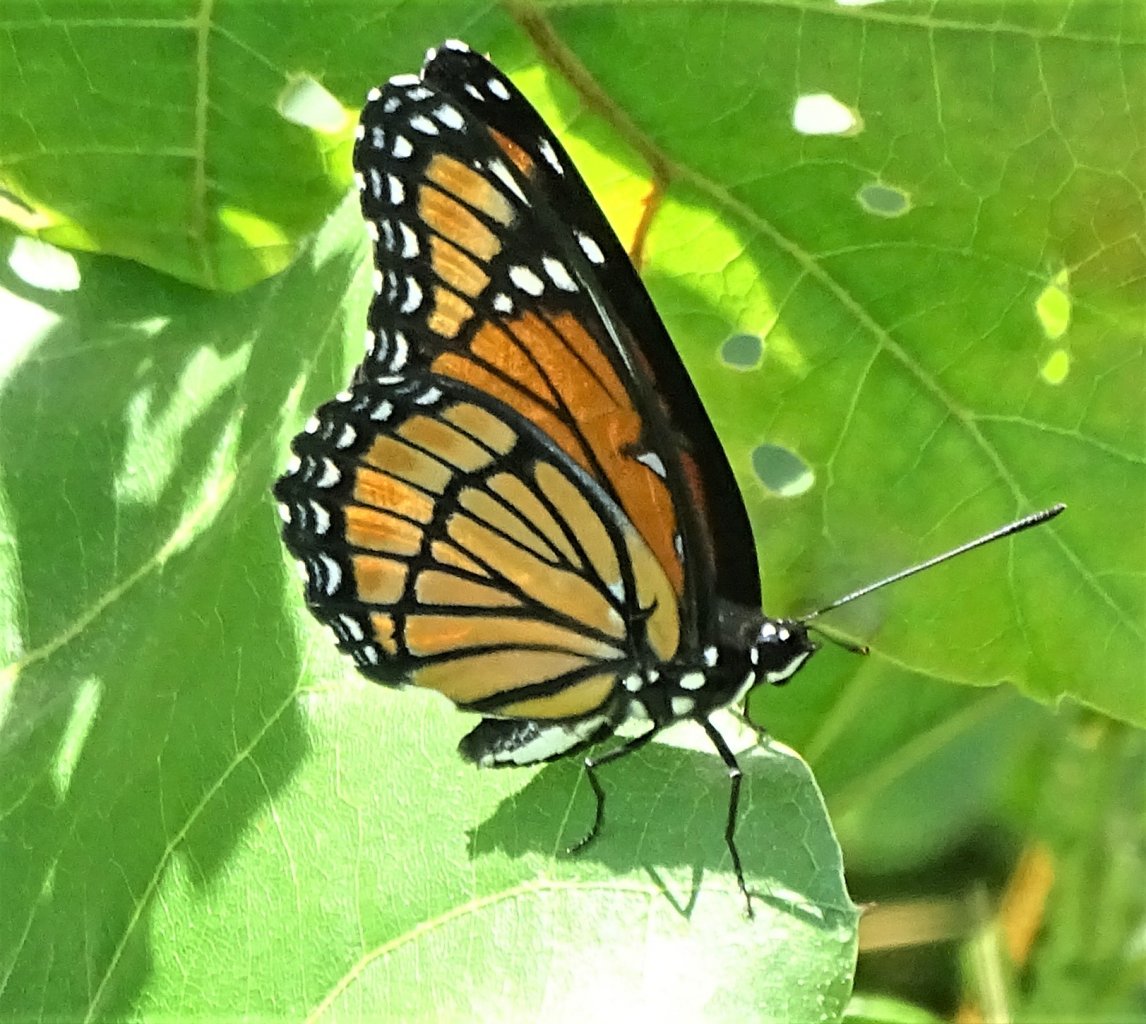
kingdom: Animalia
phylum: Arthropoda
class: Insecta
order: Lepidoptera
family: Nymphalidae
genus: Limenitis
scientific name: Limenitis archippus
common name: Viceroy
